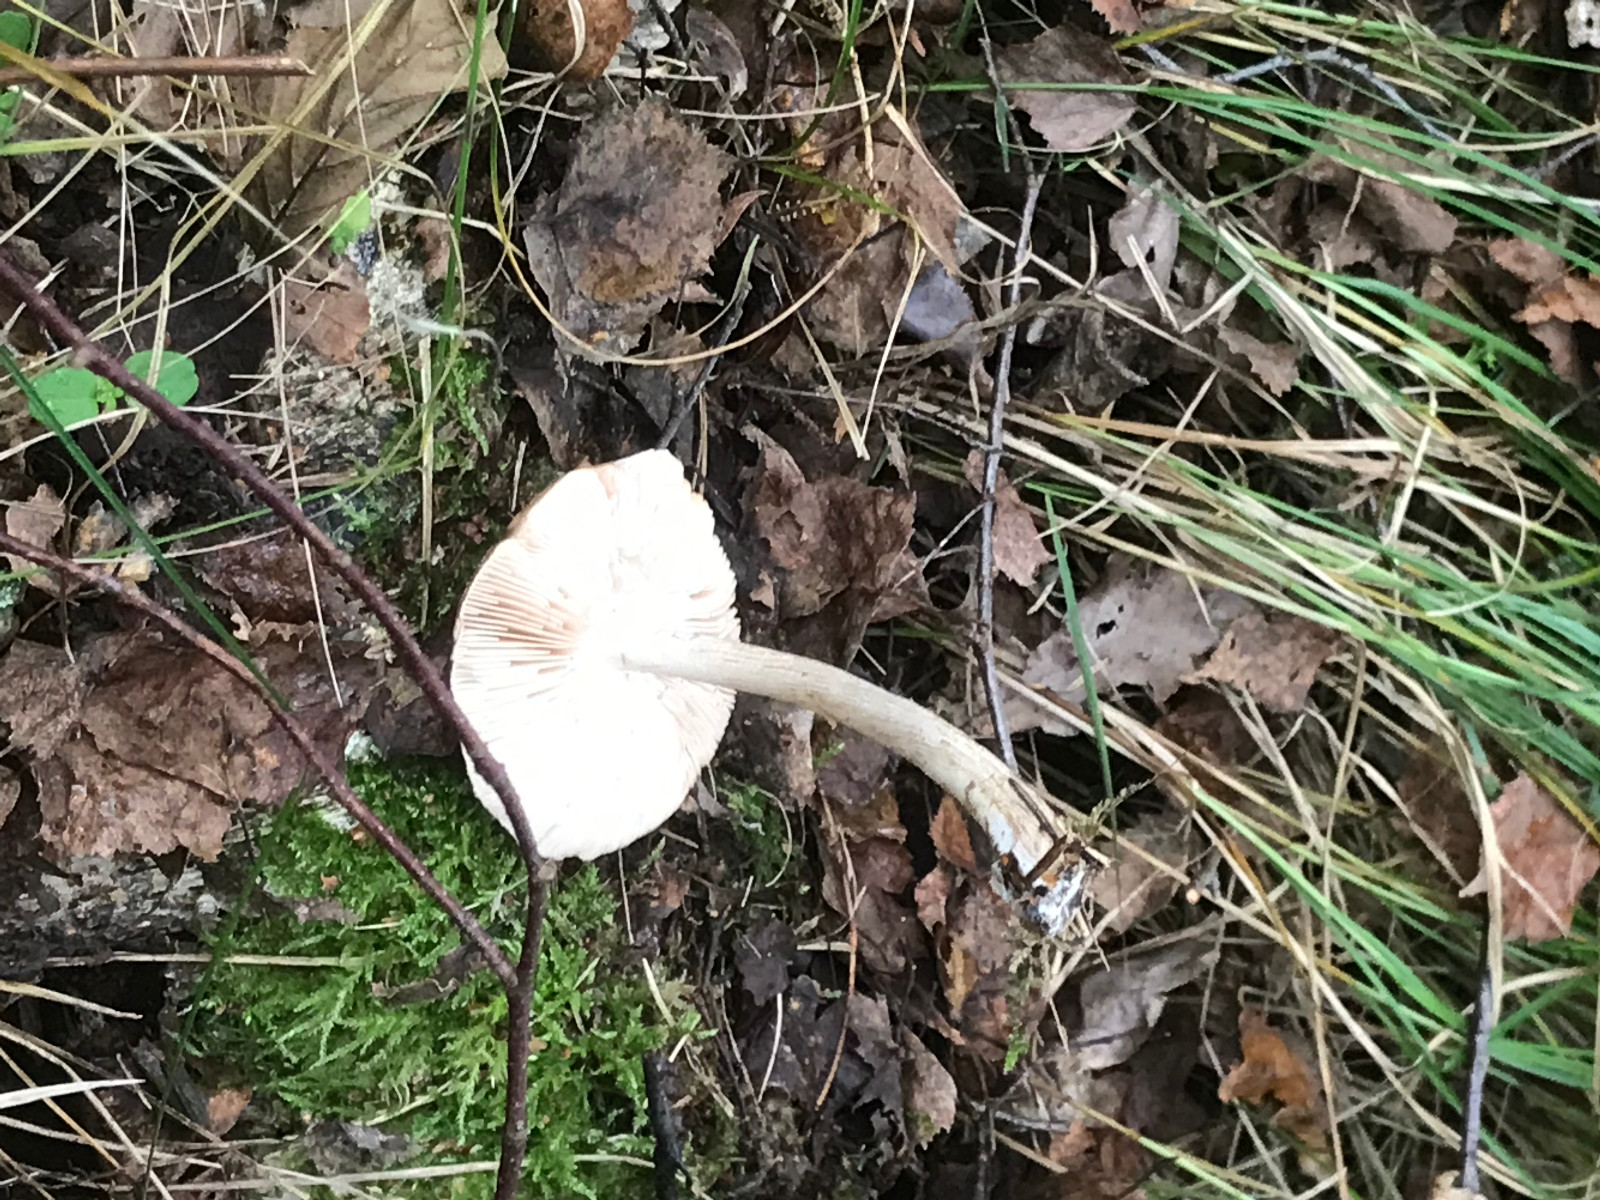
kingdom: Fungi
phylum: Basidiomycota
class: Agaricomycetes
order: Agaricales
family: Pluteaceae
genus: Pluteus
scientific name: Pluteus cervinus
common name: sodfarvet skærmhat
